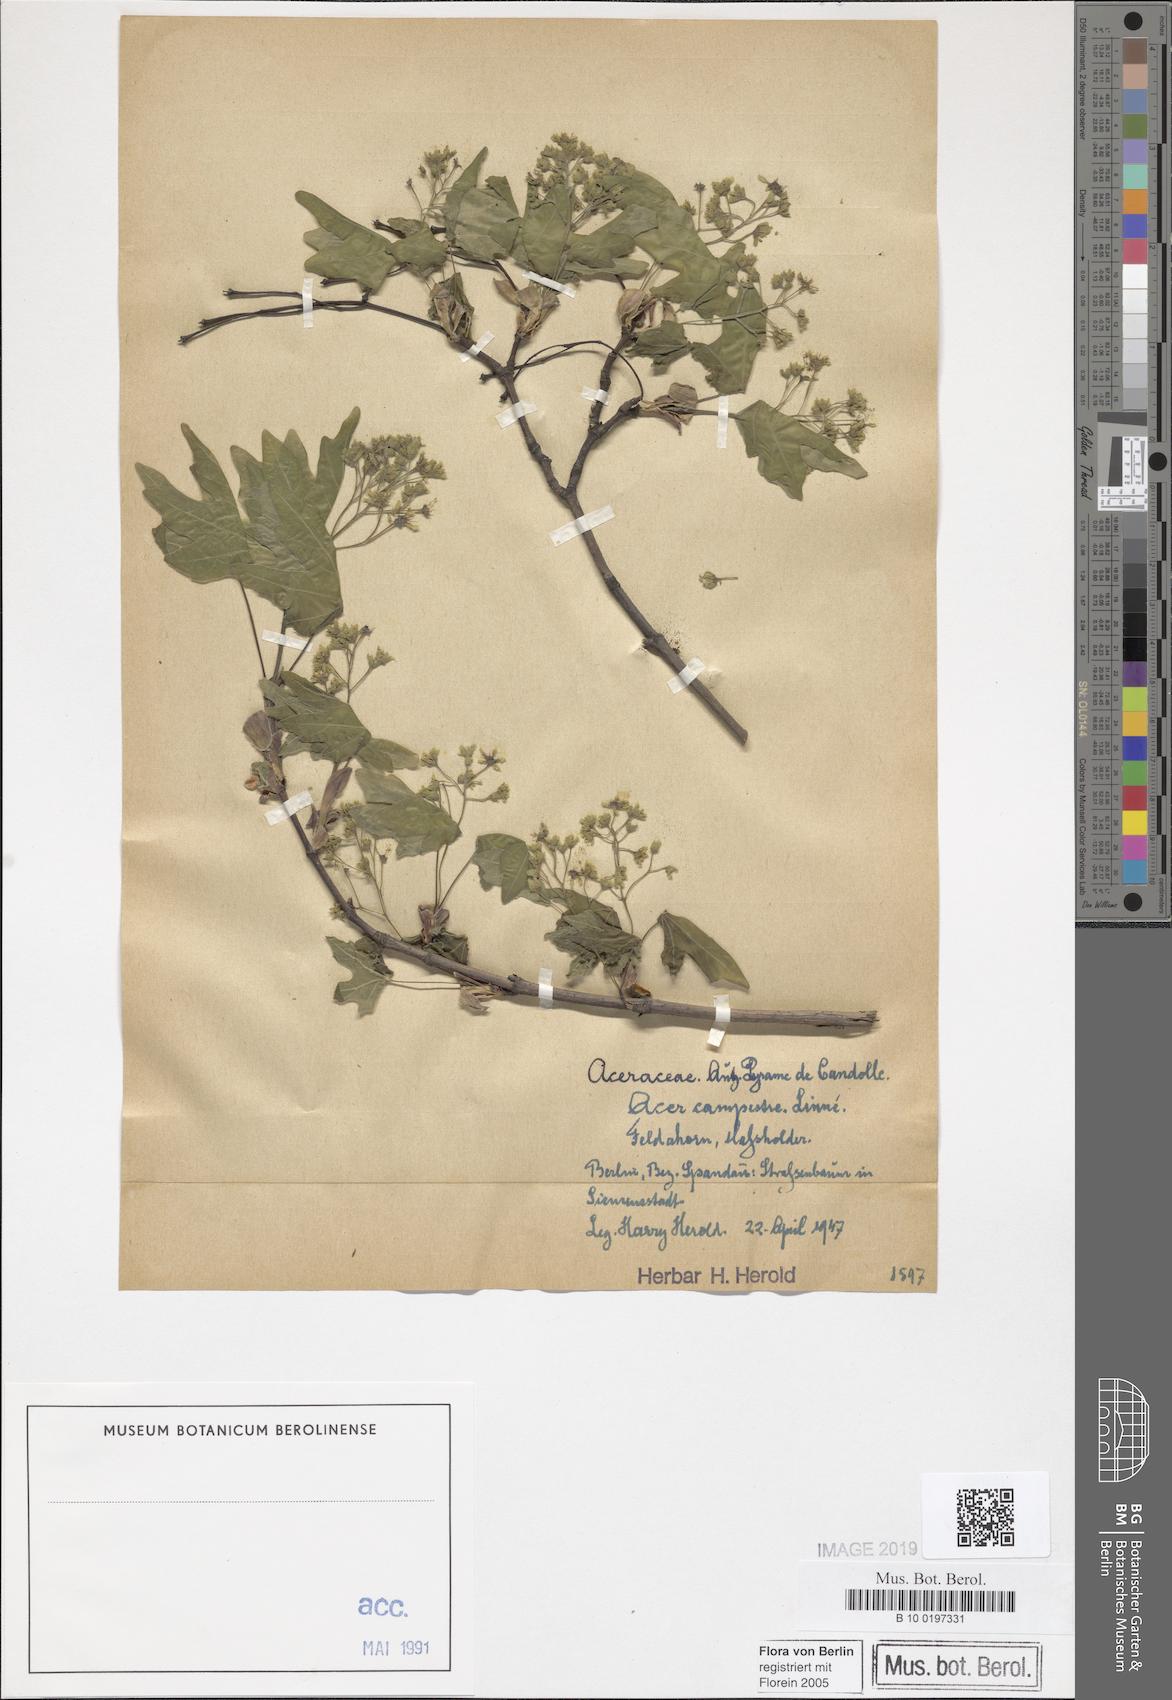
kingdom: Plantae
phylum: Tracheophyta
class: Magnoliopsida
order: Sapindales
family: Sapindaceae
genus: Acer
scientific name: Acer campestre
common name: Field maple
